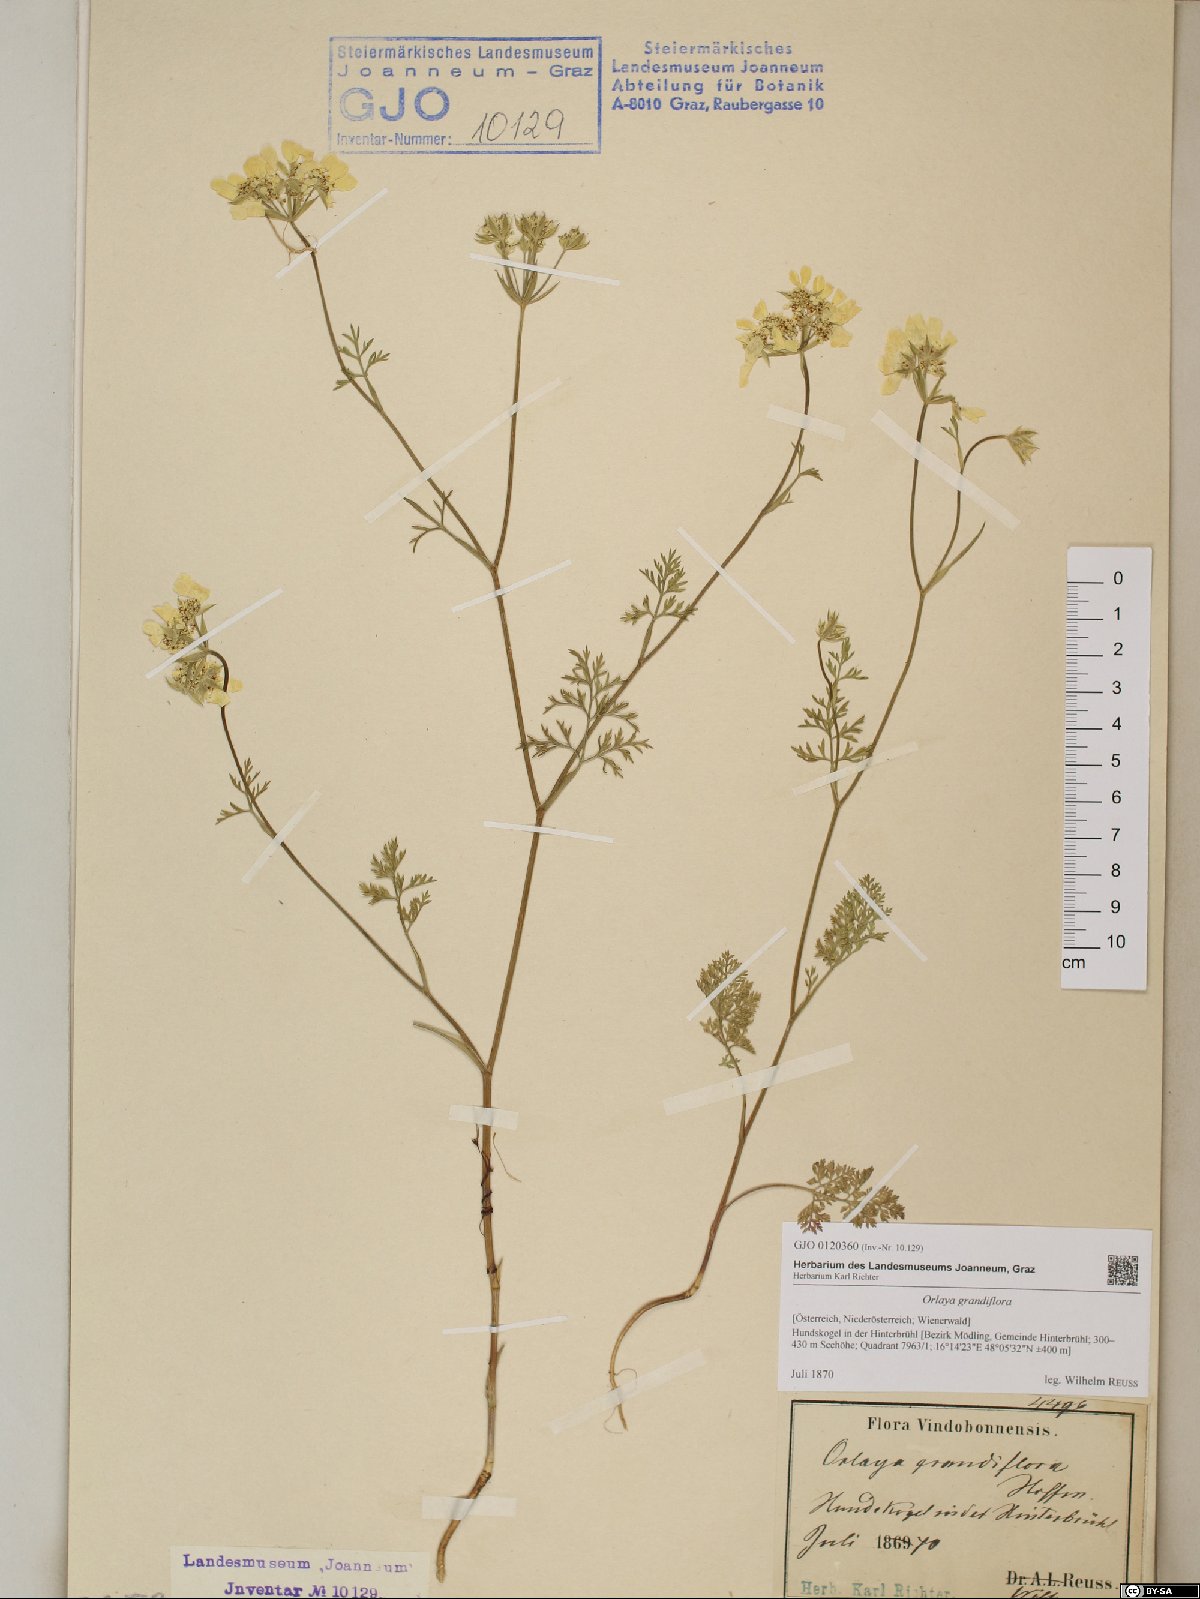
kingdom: Plantae
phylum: Tracheophyta
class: Magnoliopsida
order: Apiales
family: Apiaceae
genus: Orlaya
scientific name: Orlaya grandiflora
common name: White lace flower
